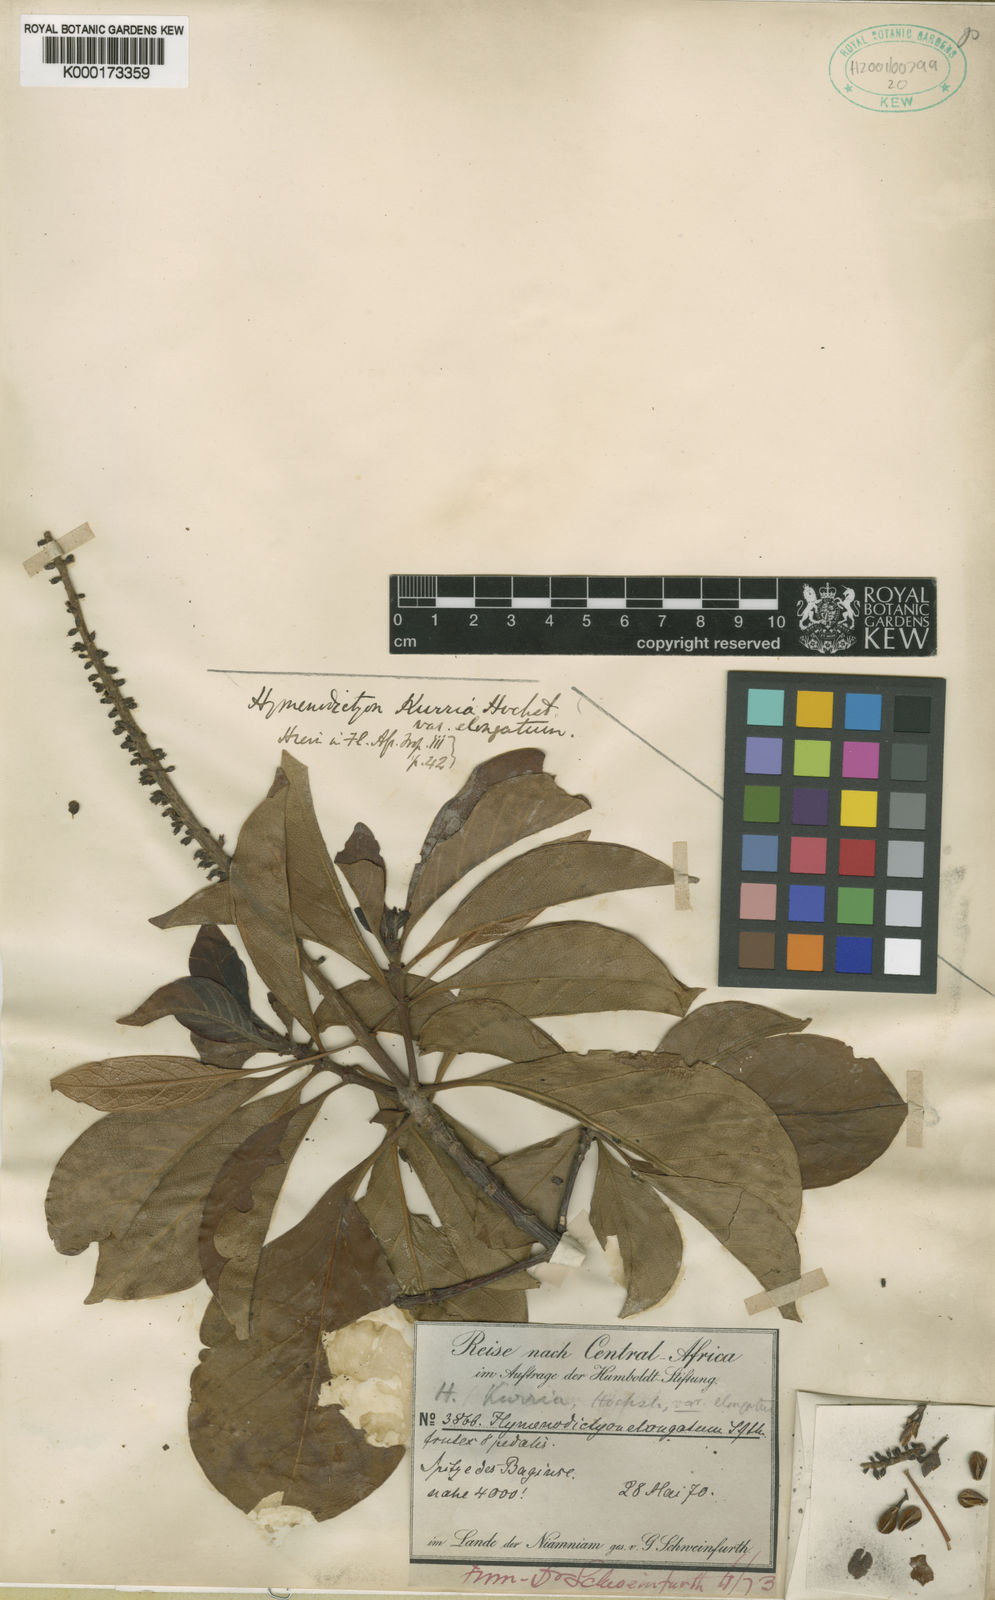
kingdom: Plantae
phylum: Tracheophyta
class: Magnoliopsida
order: Gentianales
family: Rubiaceae
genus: Hymenodictyon
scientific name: Hymenodictyon floribundum
